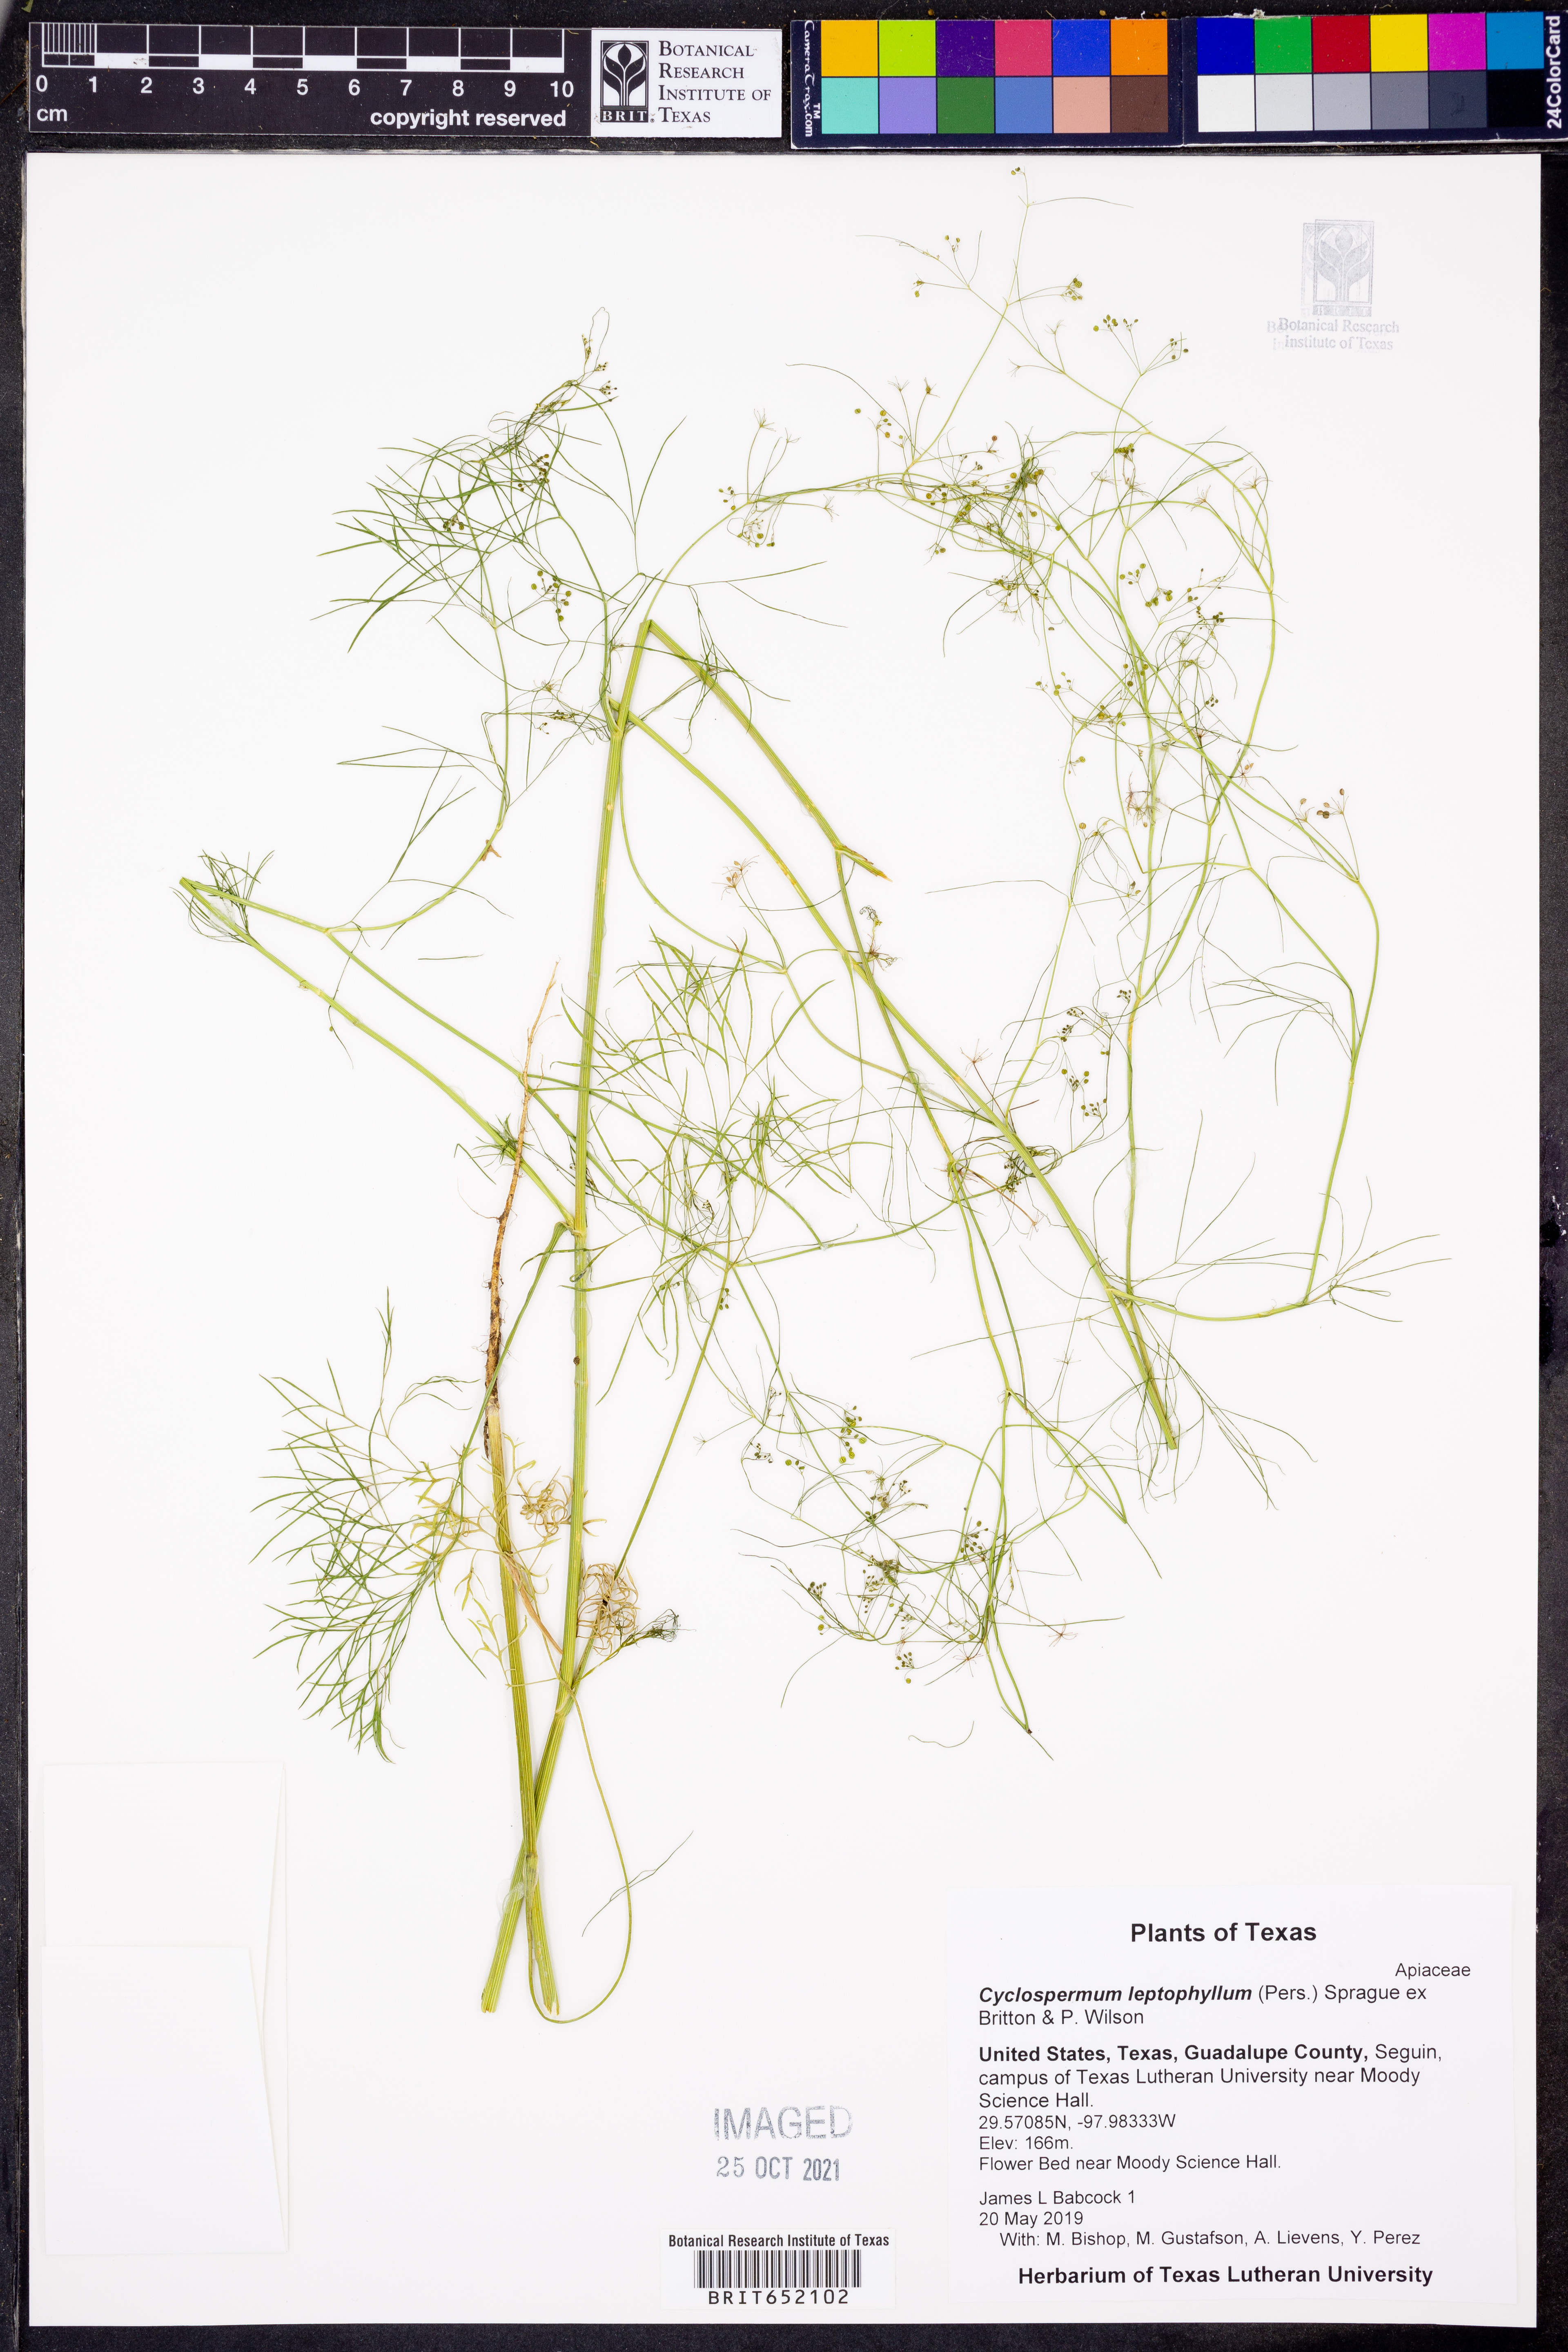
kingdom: Plantae
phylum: Tracheophyta
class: Magnoliopsida
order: Apiales
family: Apiaceae
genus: Cyclospermum
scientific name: Cyclospermum leptophyllum
